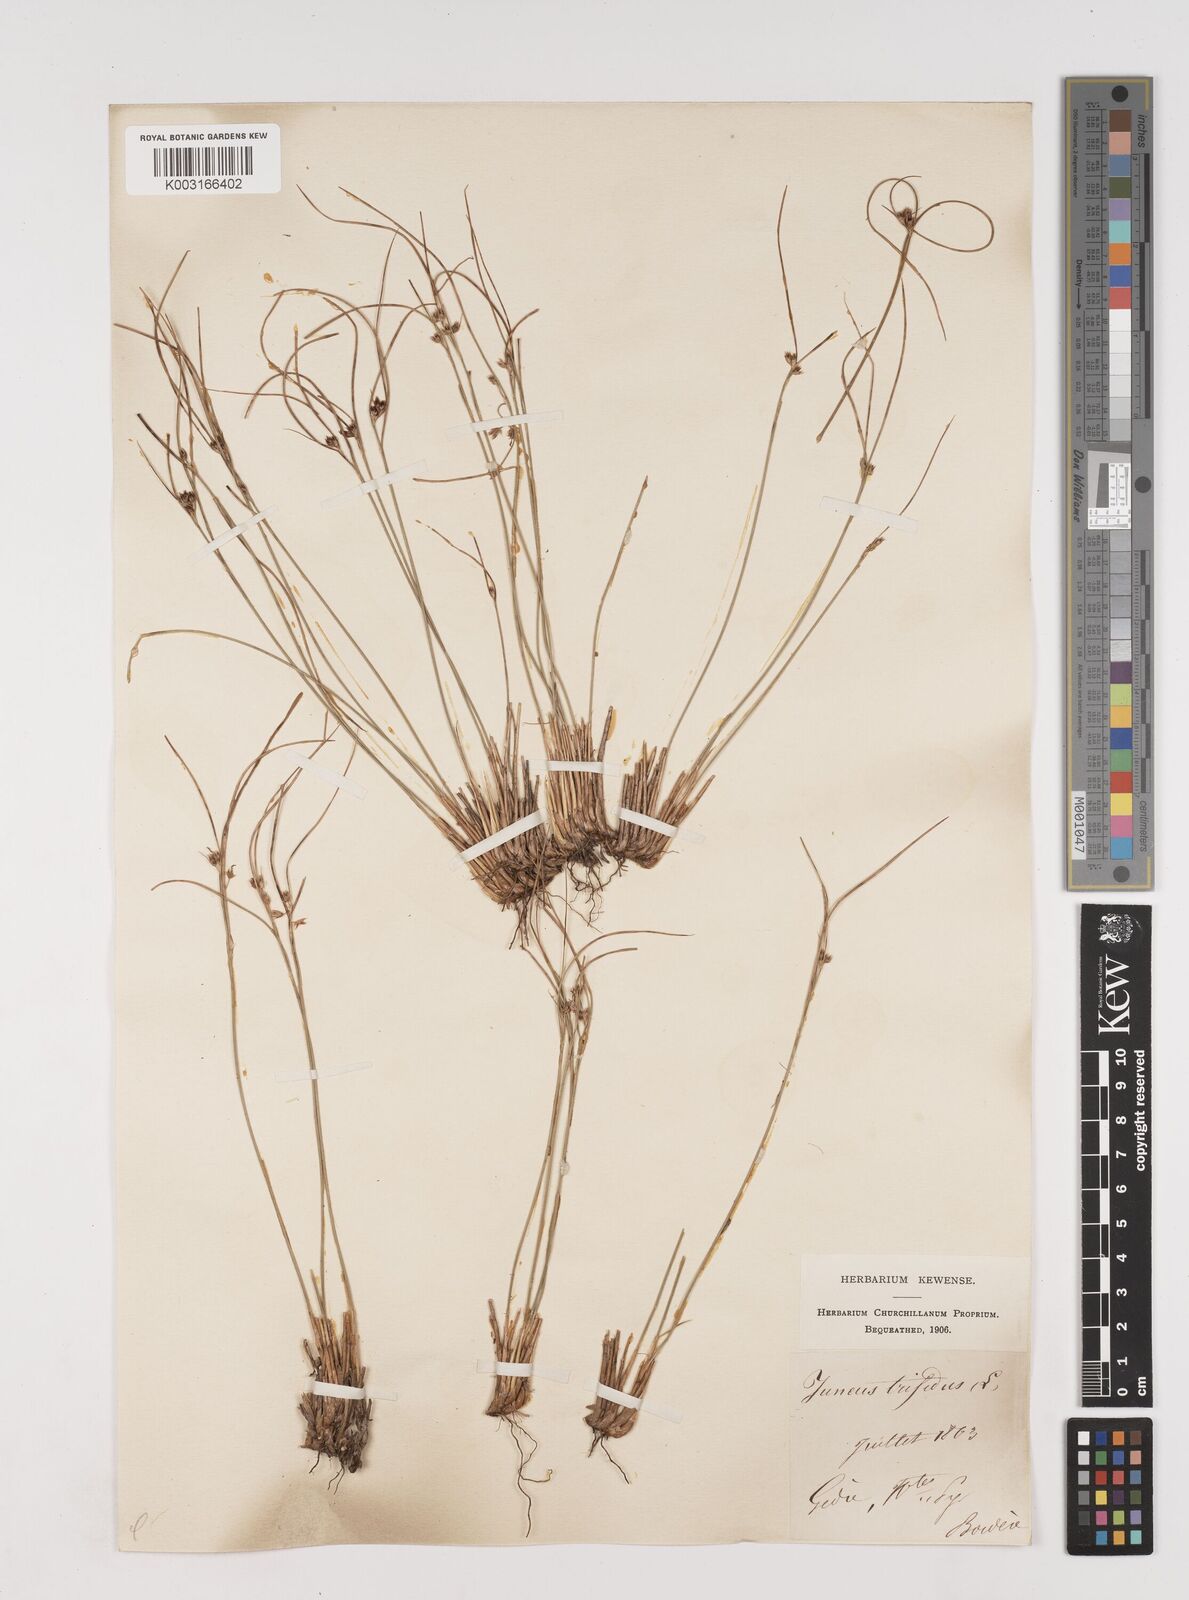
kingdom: Plantae
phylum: Tracheophyta
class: Liliopsida
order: Poales
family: Juncaceae
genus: Oreojuncus
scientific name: Oreojuncus trifidus
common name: Highland rush
